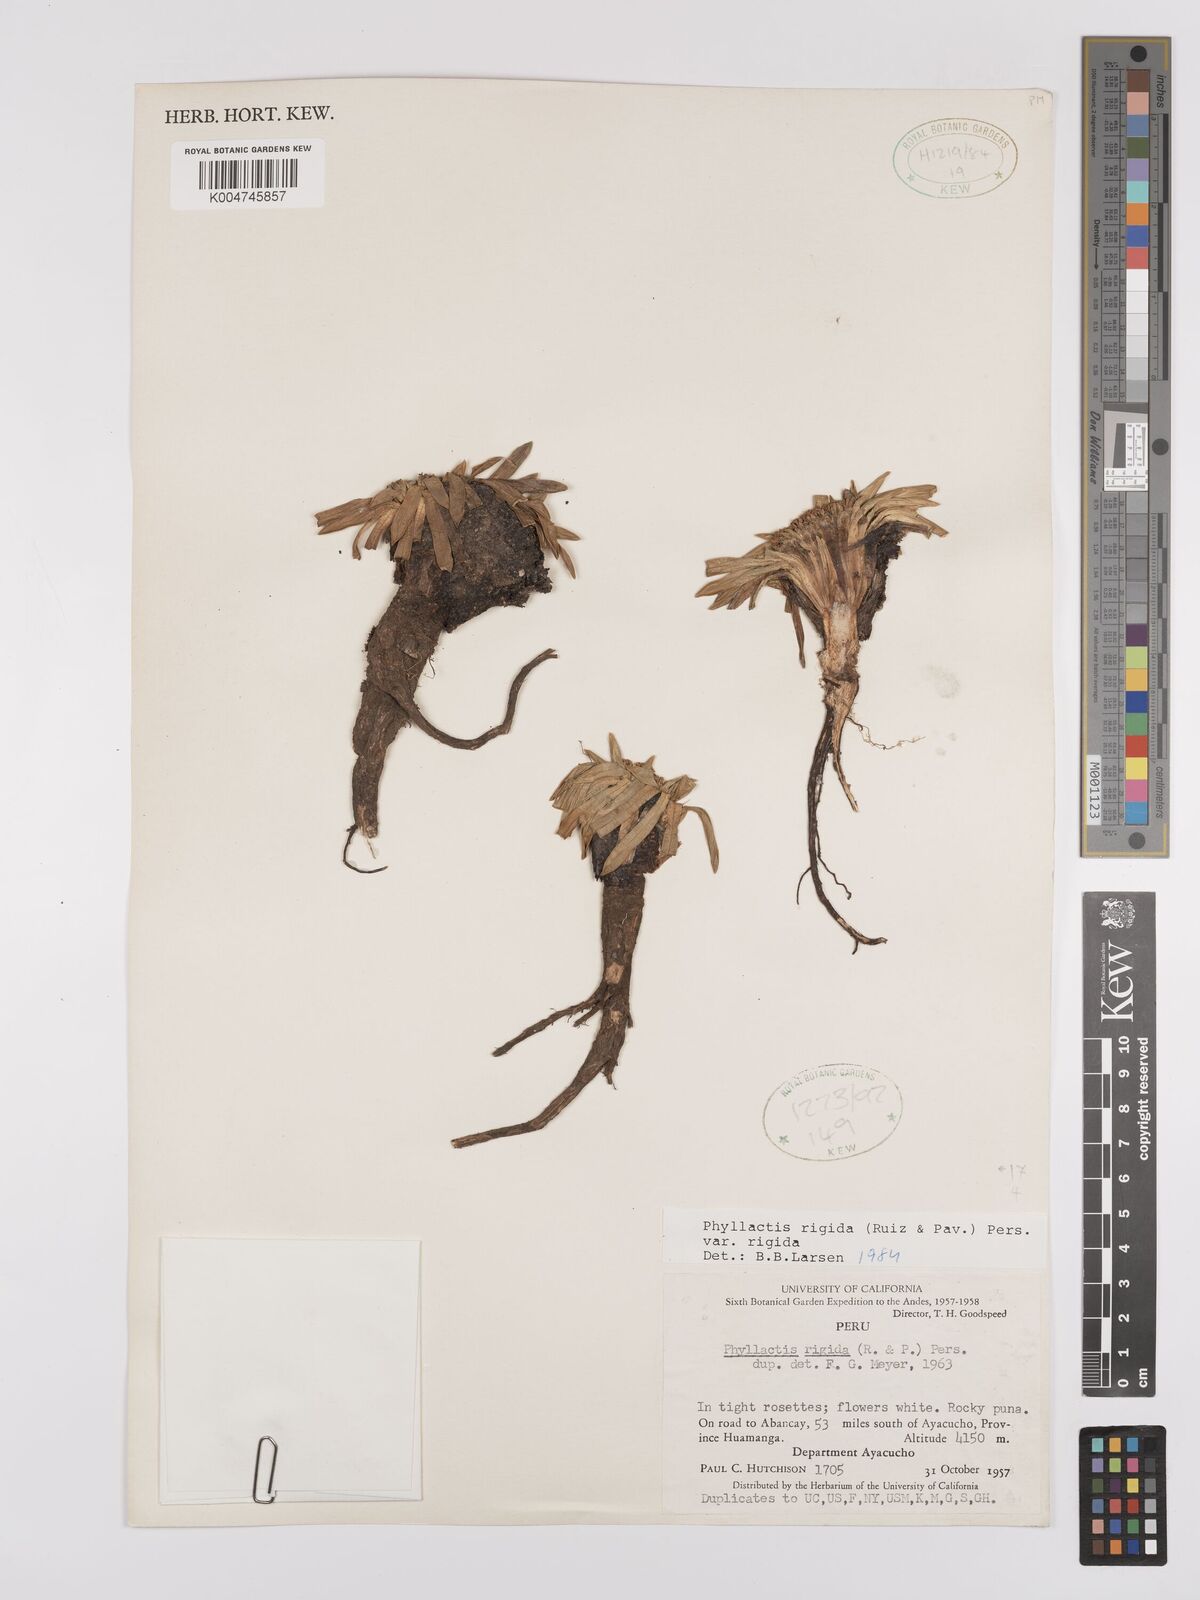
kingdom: Plantae
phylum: Tracheophyta
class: Magnoliopsida
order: Dipsacales
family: Caprifoliaceae
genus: Valeriana
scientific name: Valeriana rigida
